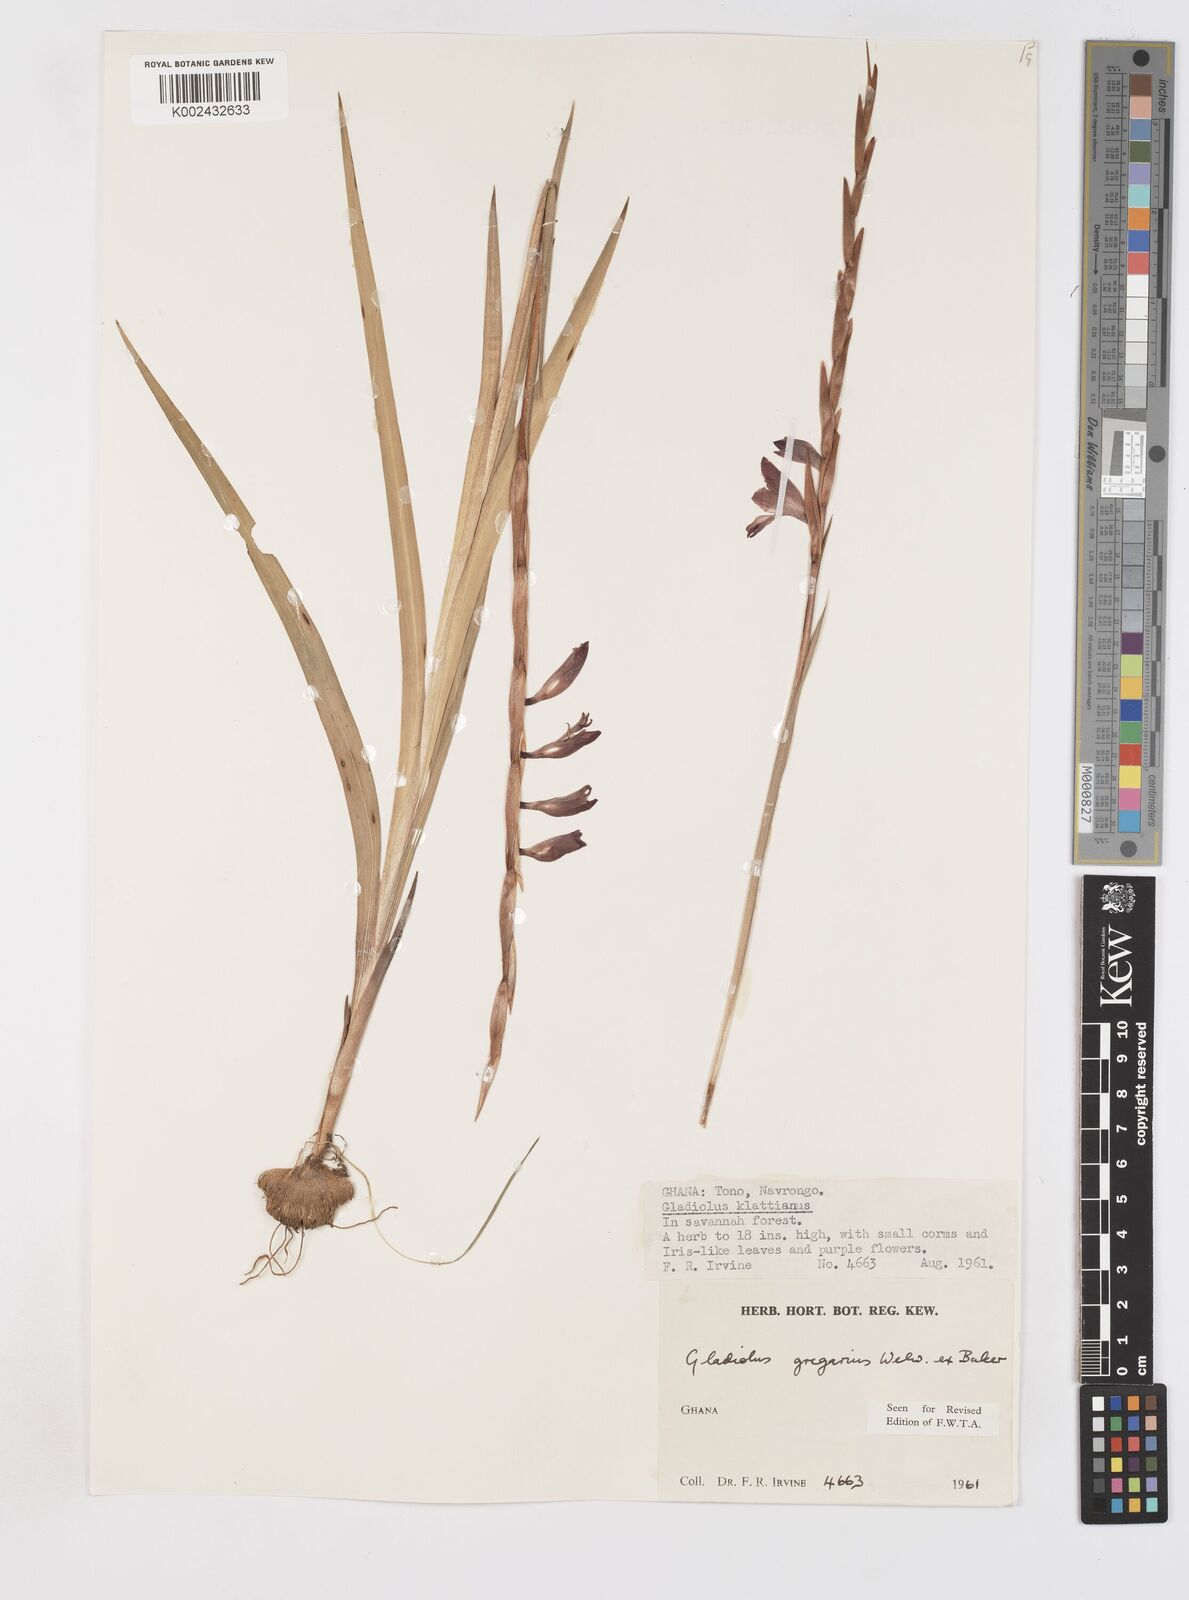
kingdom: Plantae
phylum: Tracheophyta
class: Liliopsida
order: Asparagales
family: Iridaceae
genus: Gladiolus
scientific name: Gladiolus gregarius
